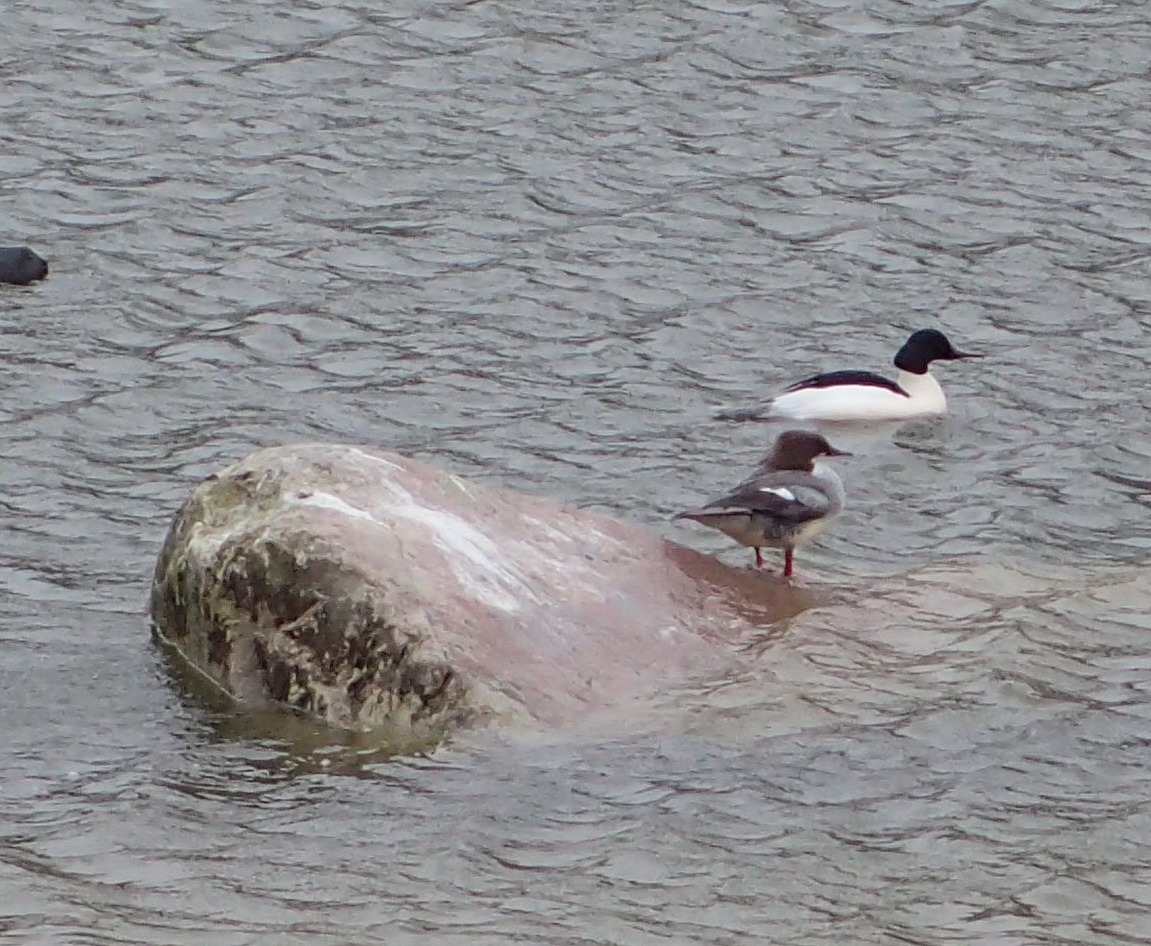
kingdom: Animalia
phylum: Chordata
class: Aves
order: Anseriformes
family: Anatidae
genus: Mergus
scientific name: Mergus merganser
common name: Stor skallesluger
